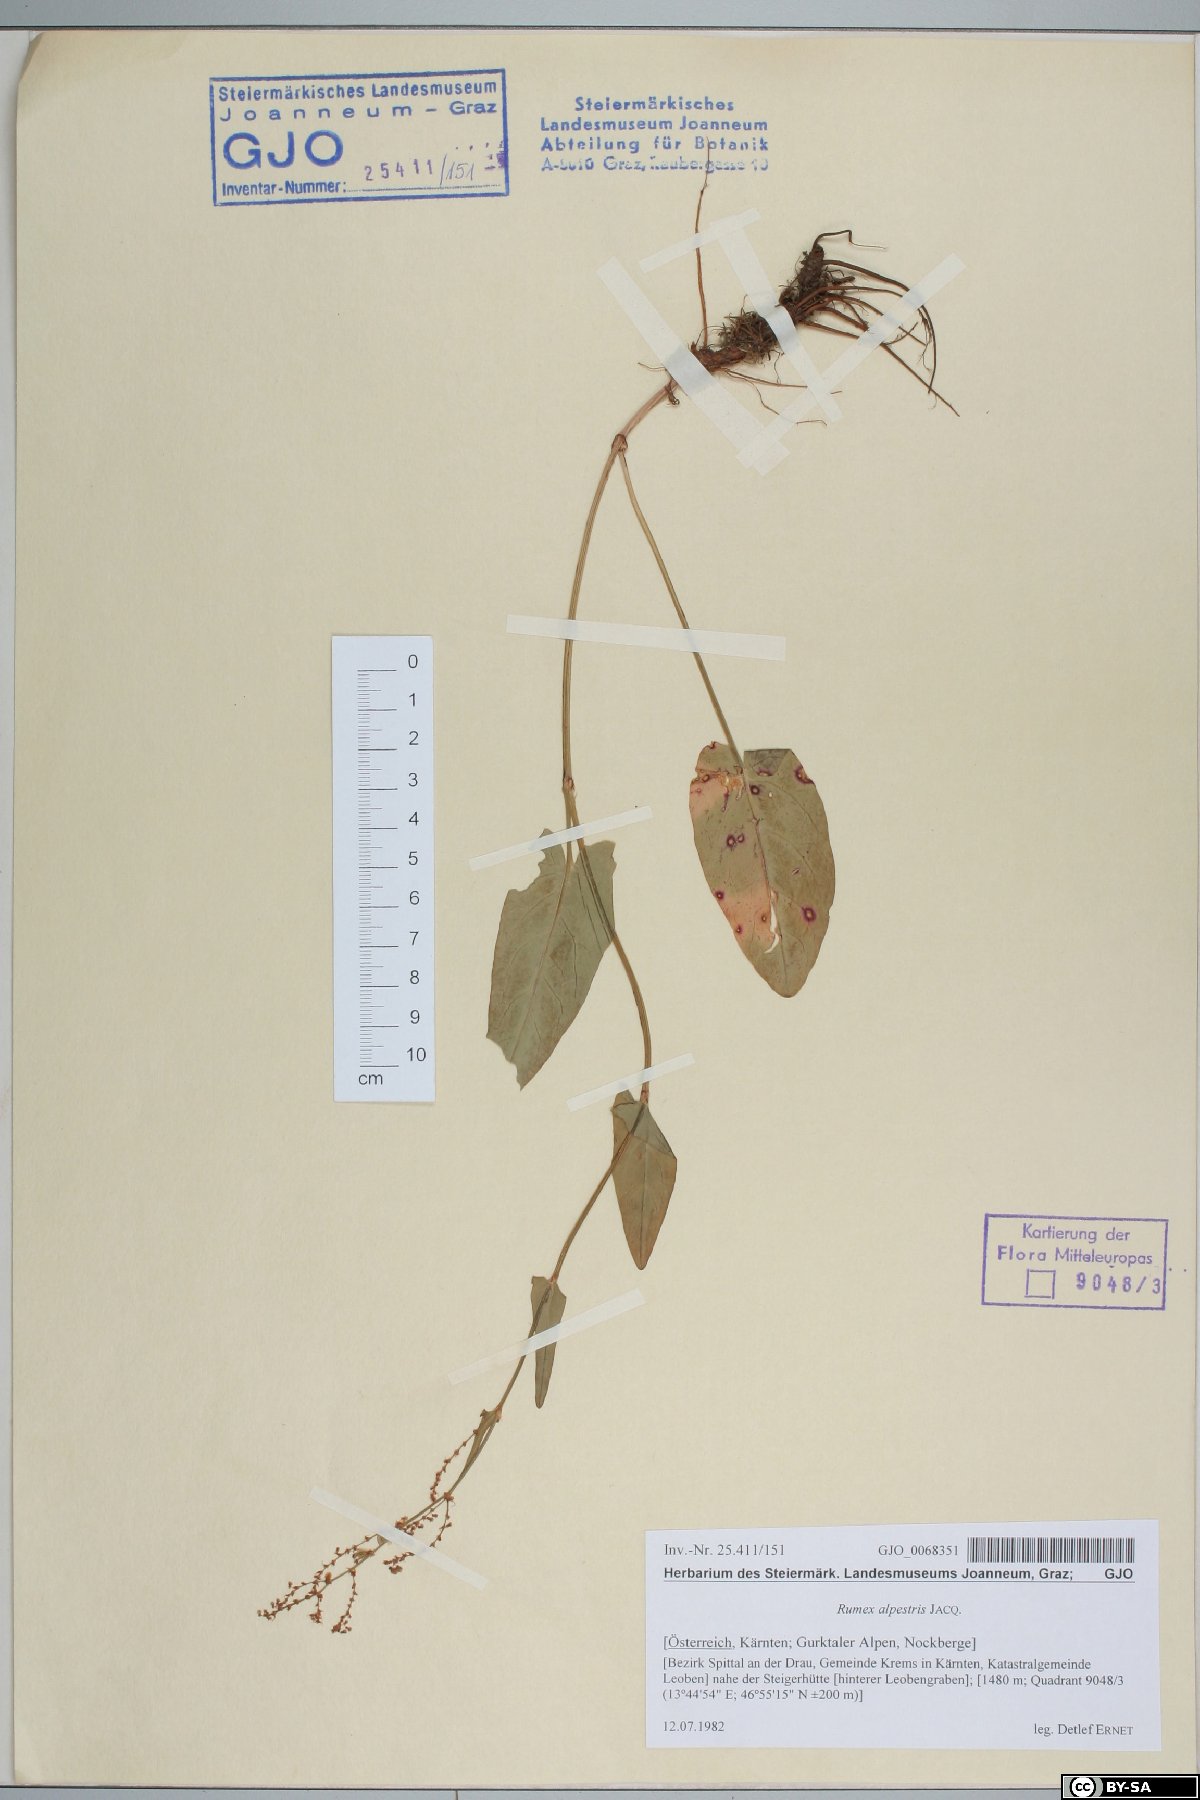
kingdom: Plantae
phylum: Tracheophyta
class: Magnoliopsida
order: Caryophyllales
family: Polygonaceae
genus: Rumex
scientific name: Rumex scutatus
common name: French sorrel
